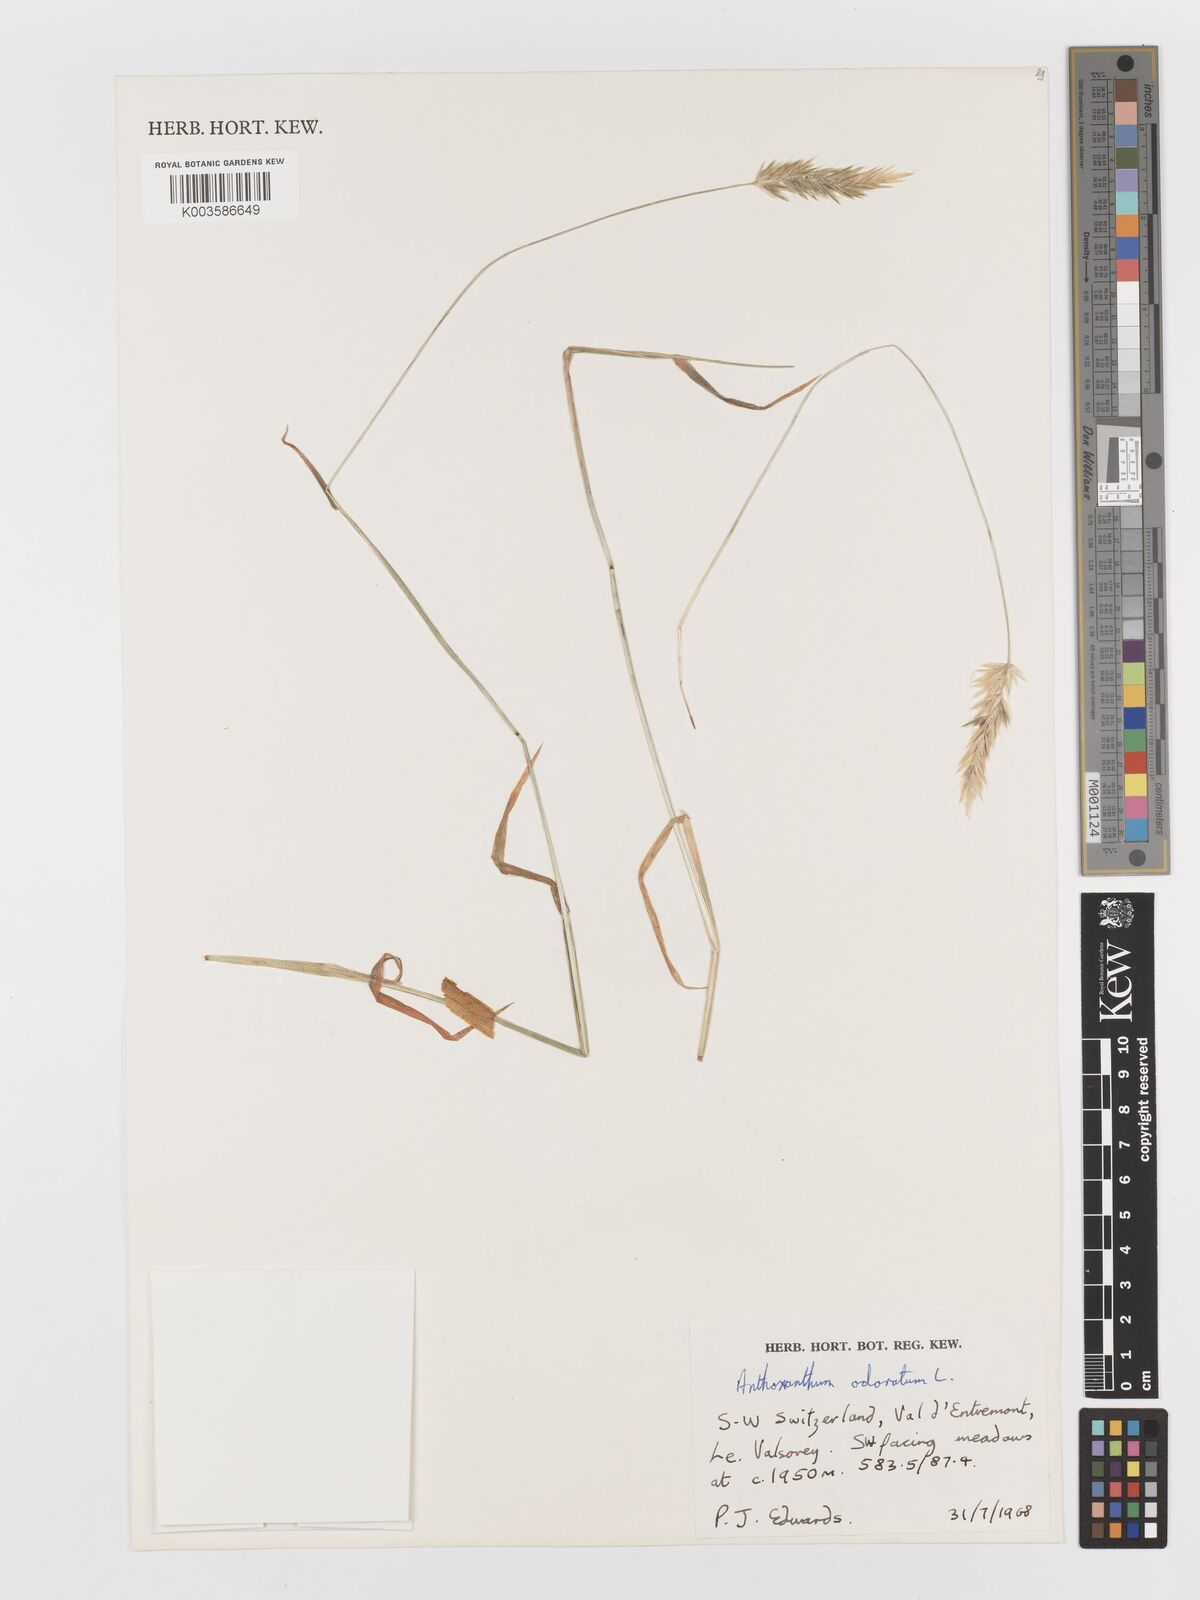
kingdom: Plantae
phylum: Tracheophyta
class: Liliopsida
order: Poales
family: Poaceae
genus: Anthoxanthum
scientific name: Anthoxanthum odoratum
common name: Sweet vernalgrass
